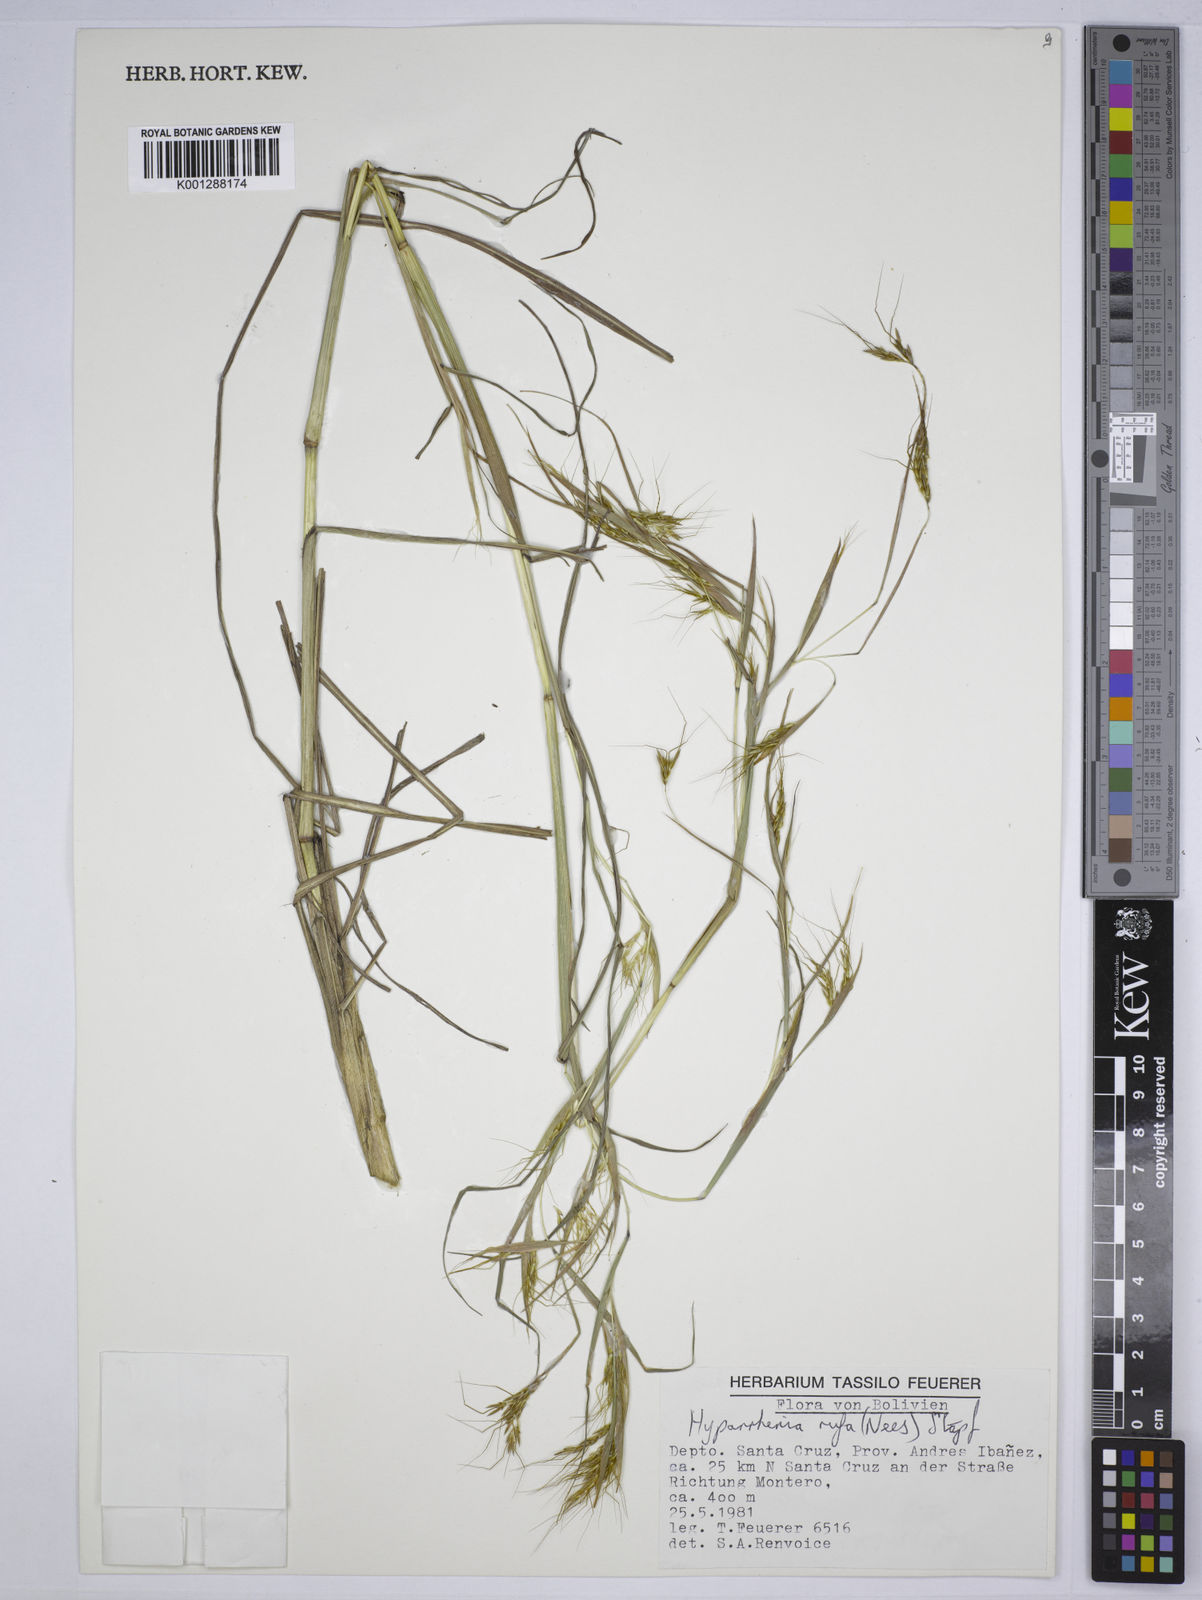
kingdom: Plantae
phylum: Tracheophyta
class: Liliopsida
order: Poales
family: Poaceae
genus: Hyparrhenia
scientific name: Hyparrhenia rufa
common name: Jaraguagrass
